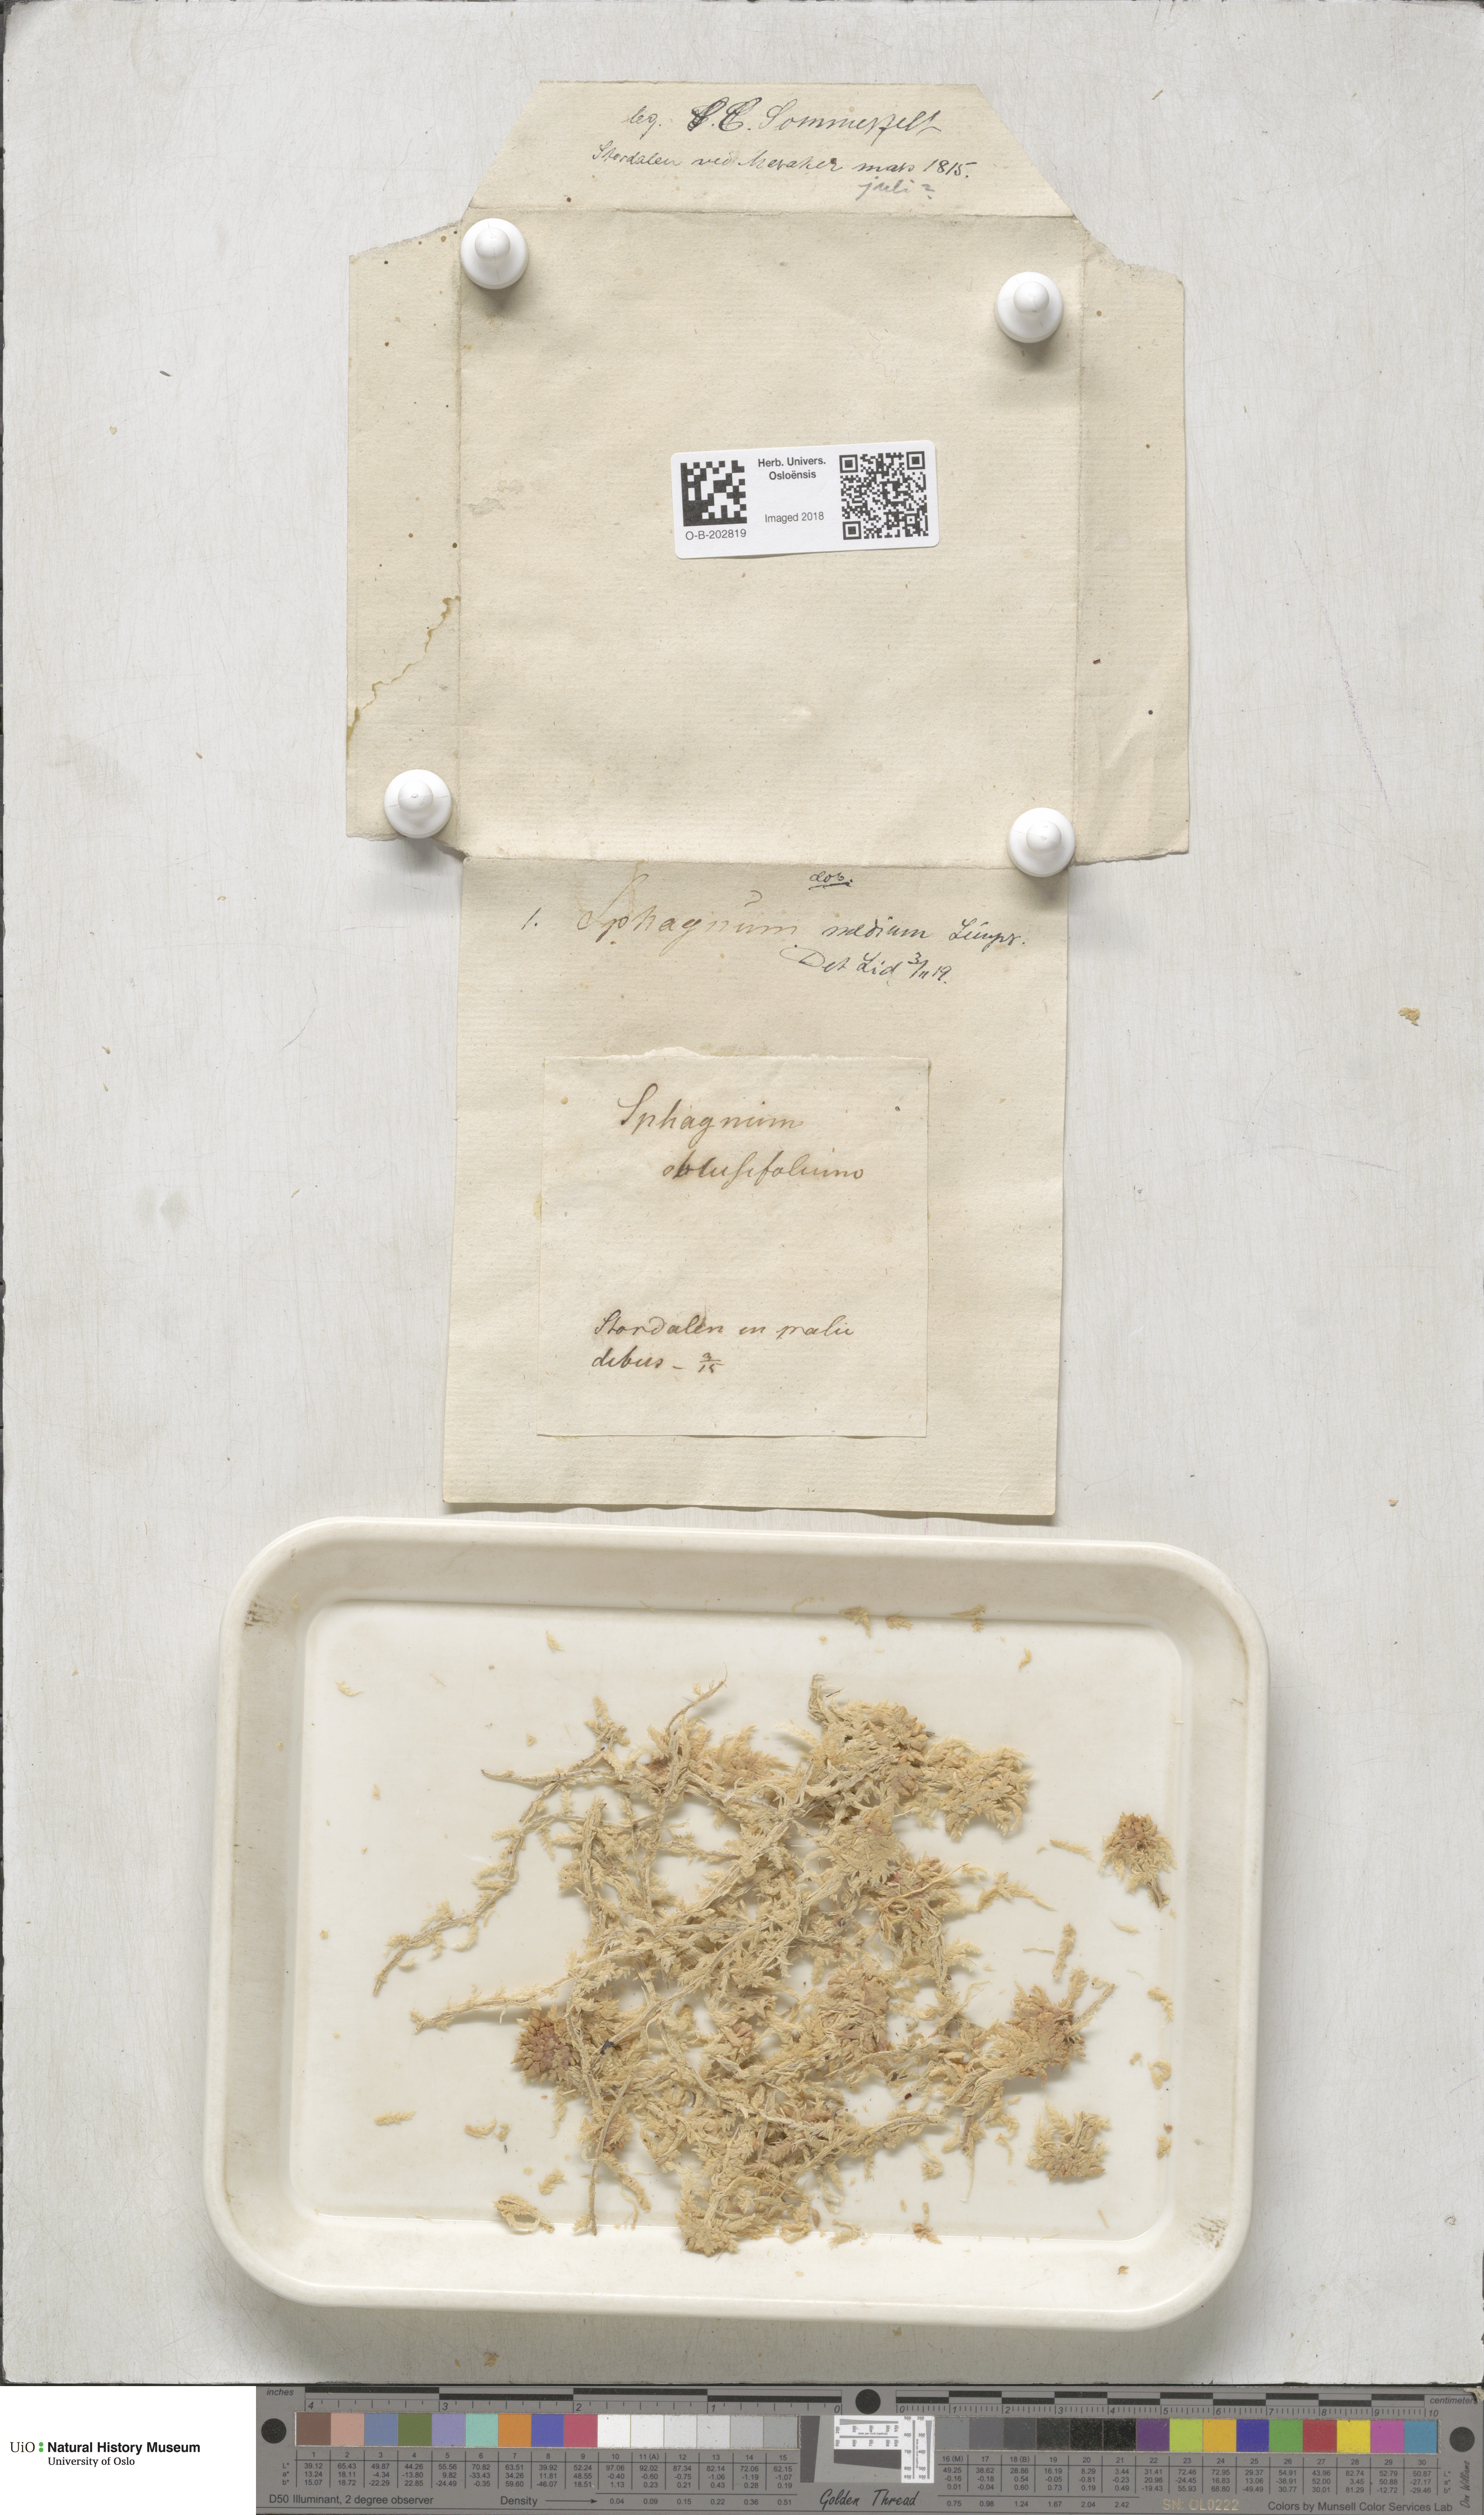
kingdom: Plantae
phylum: Bryophyta
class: Sphagnopsida
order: Sphagnales
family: Sphagnaceae
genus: Sphagnum
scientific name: Sphagnum magellanicum
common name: Magellan's peat moss
